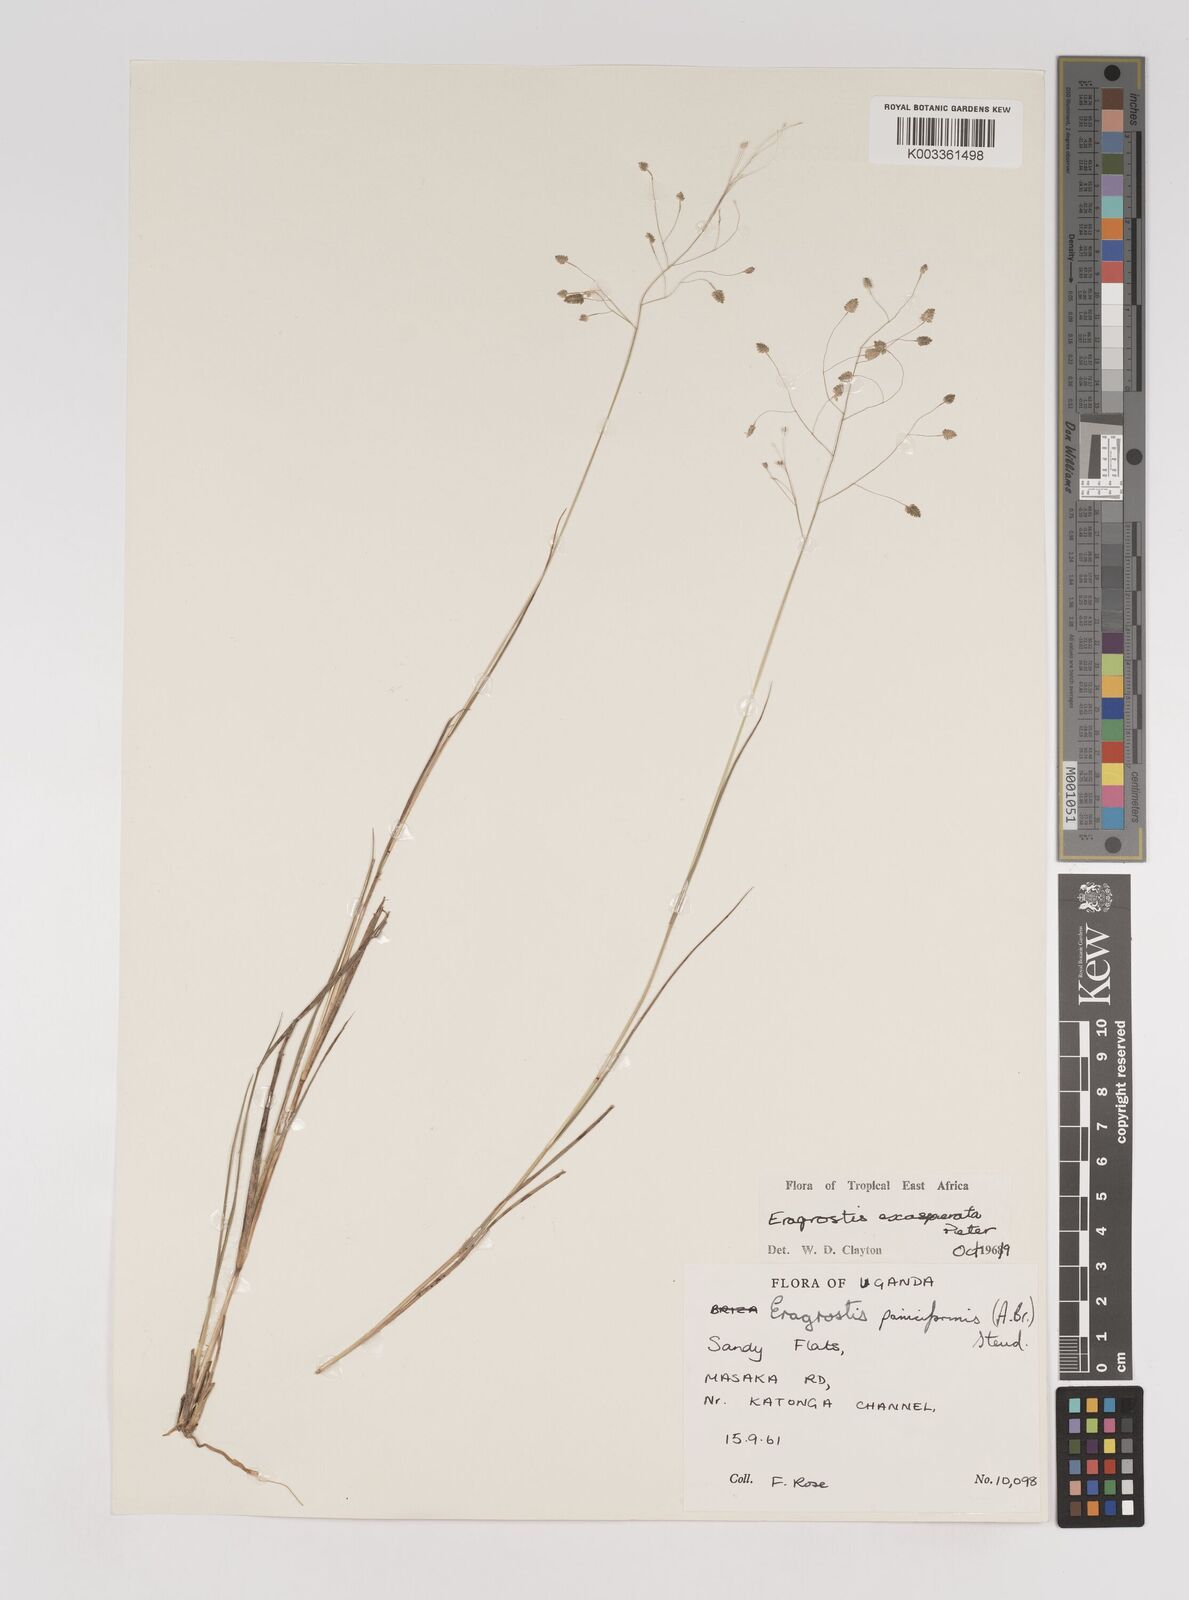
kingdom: Plantae
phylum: Tracheophyta
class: Liliopsida
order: Poales
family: Poaceae
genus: Eragrostis
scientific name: Eragrostis exasperata
